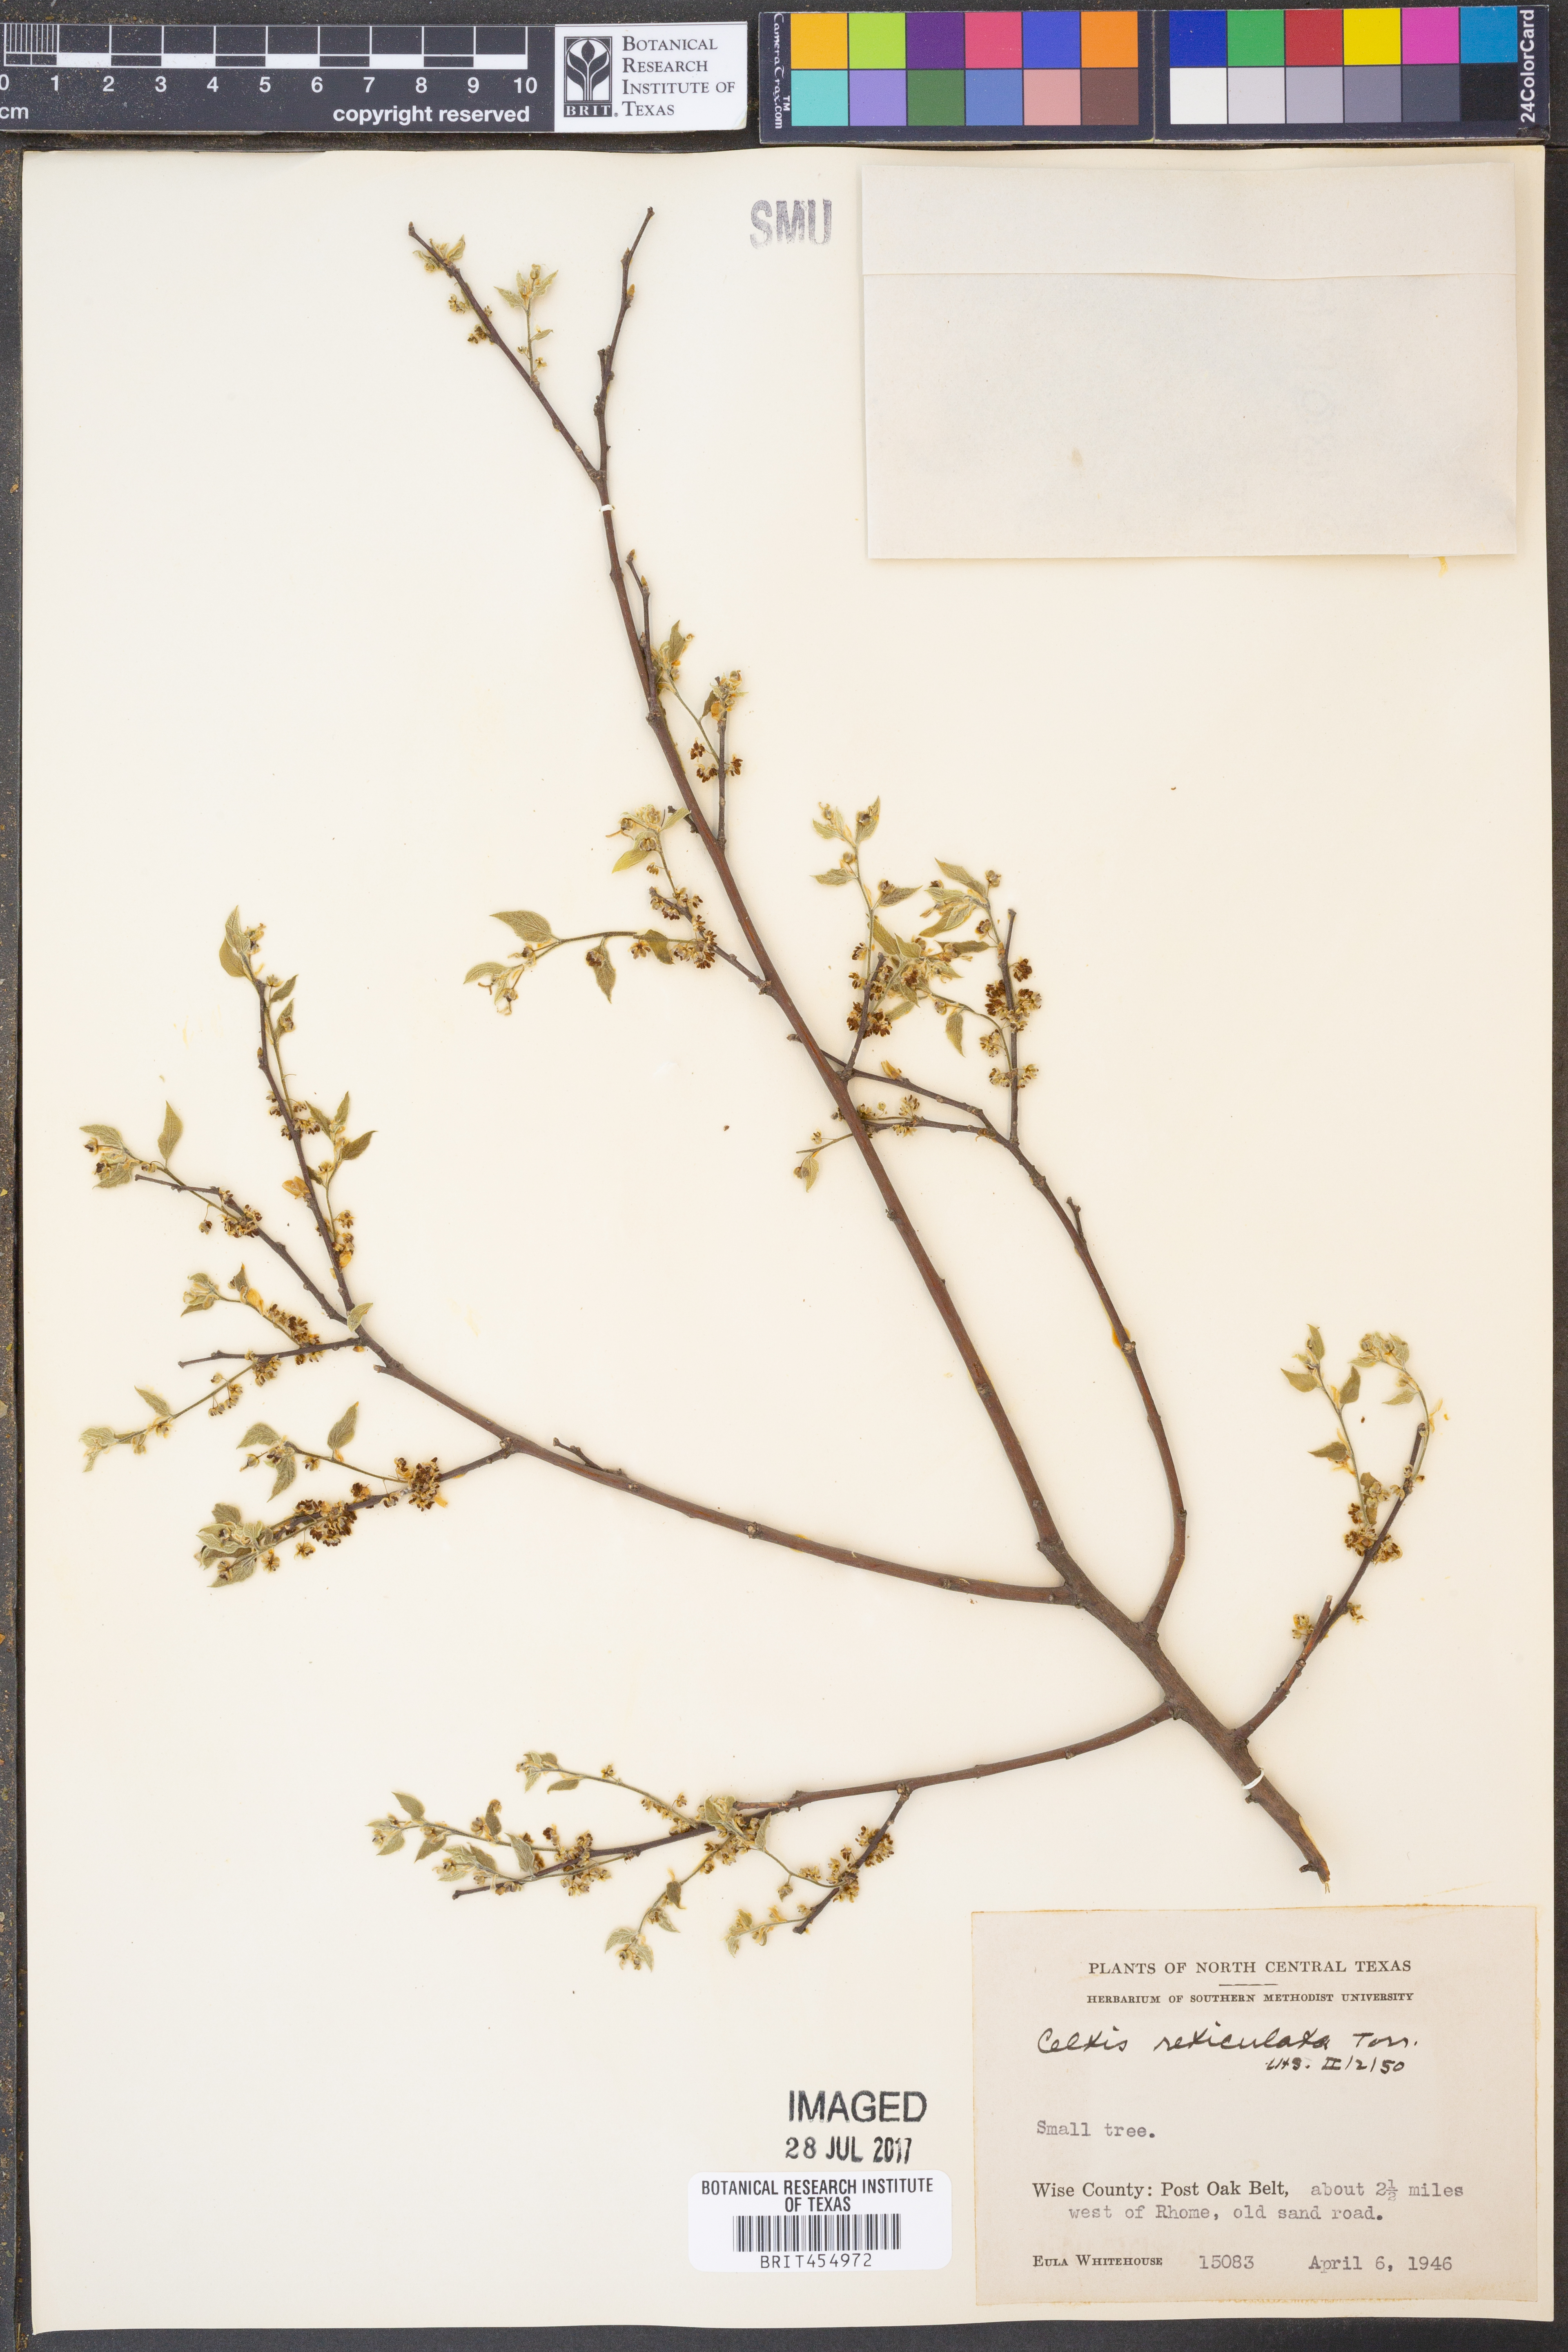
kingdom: Plantae
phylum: Tracheophyta
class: Magnoliopsida
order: Rosales
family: Cannabaceae
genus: Celtis
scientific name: Celtis reticulata
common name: Netleaf hackberry
